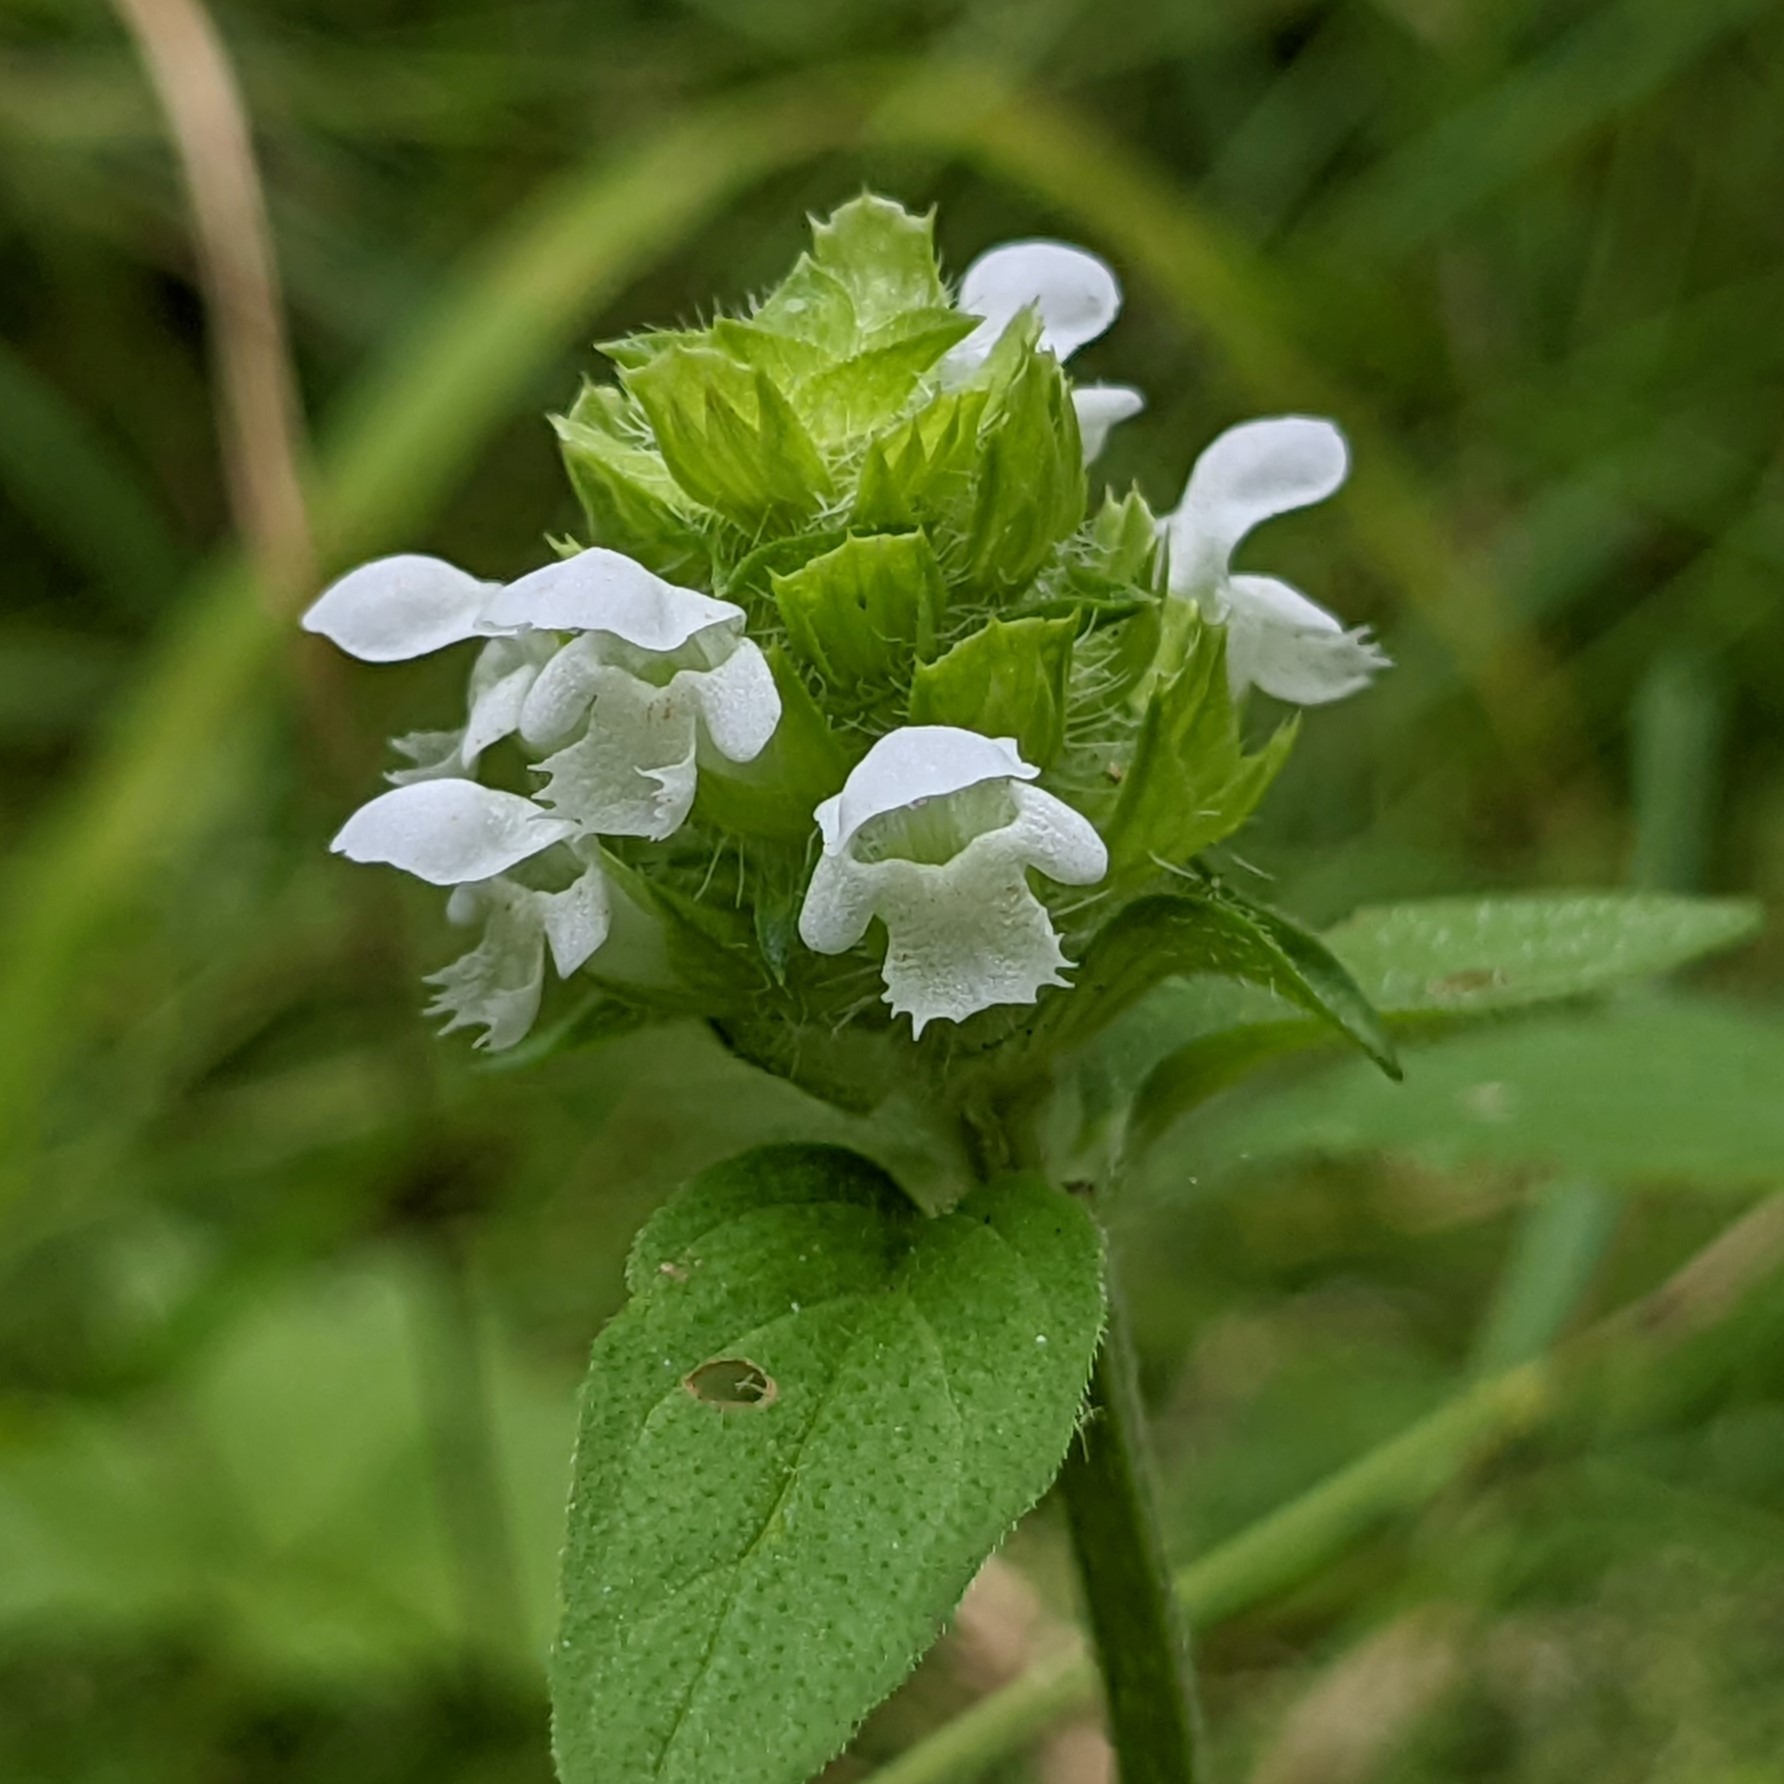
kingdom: Plantae
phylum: Tracheophyta
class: Magnoliopsida
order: Lamiales
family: Lamiaceae
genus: Prunella
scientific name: Prunella vulgaris
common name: Almindelig brunelle
